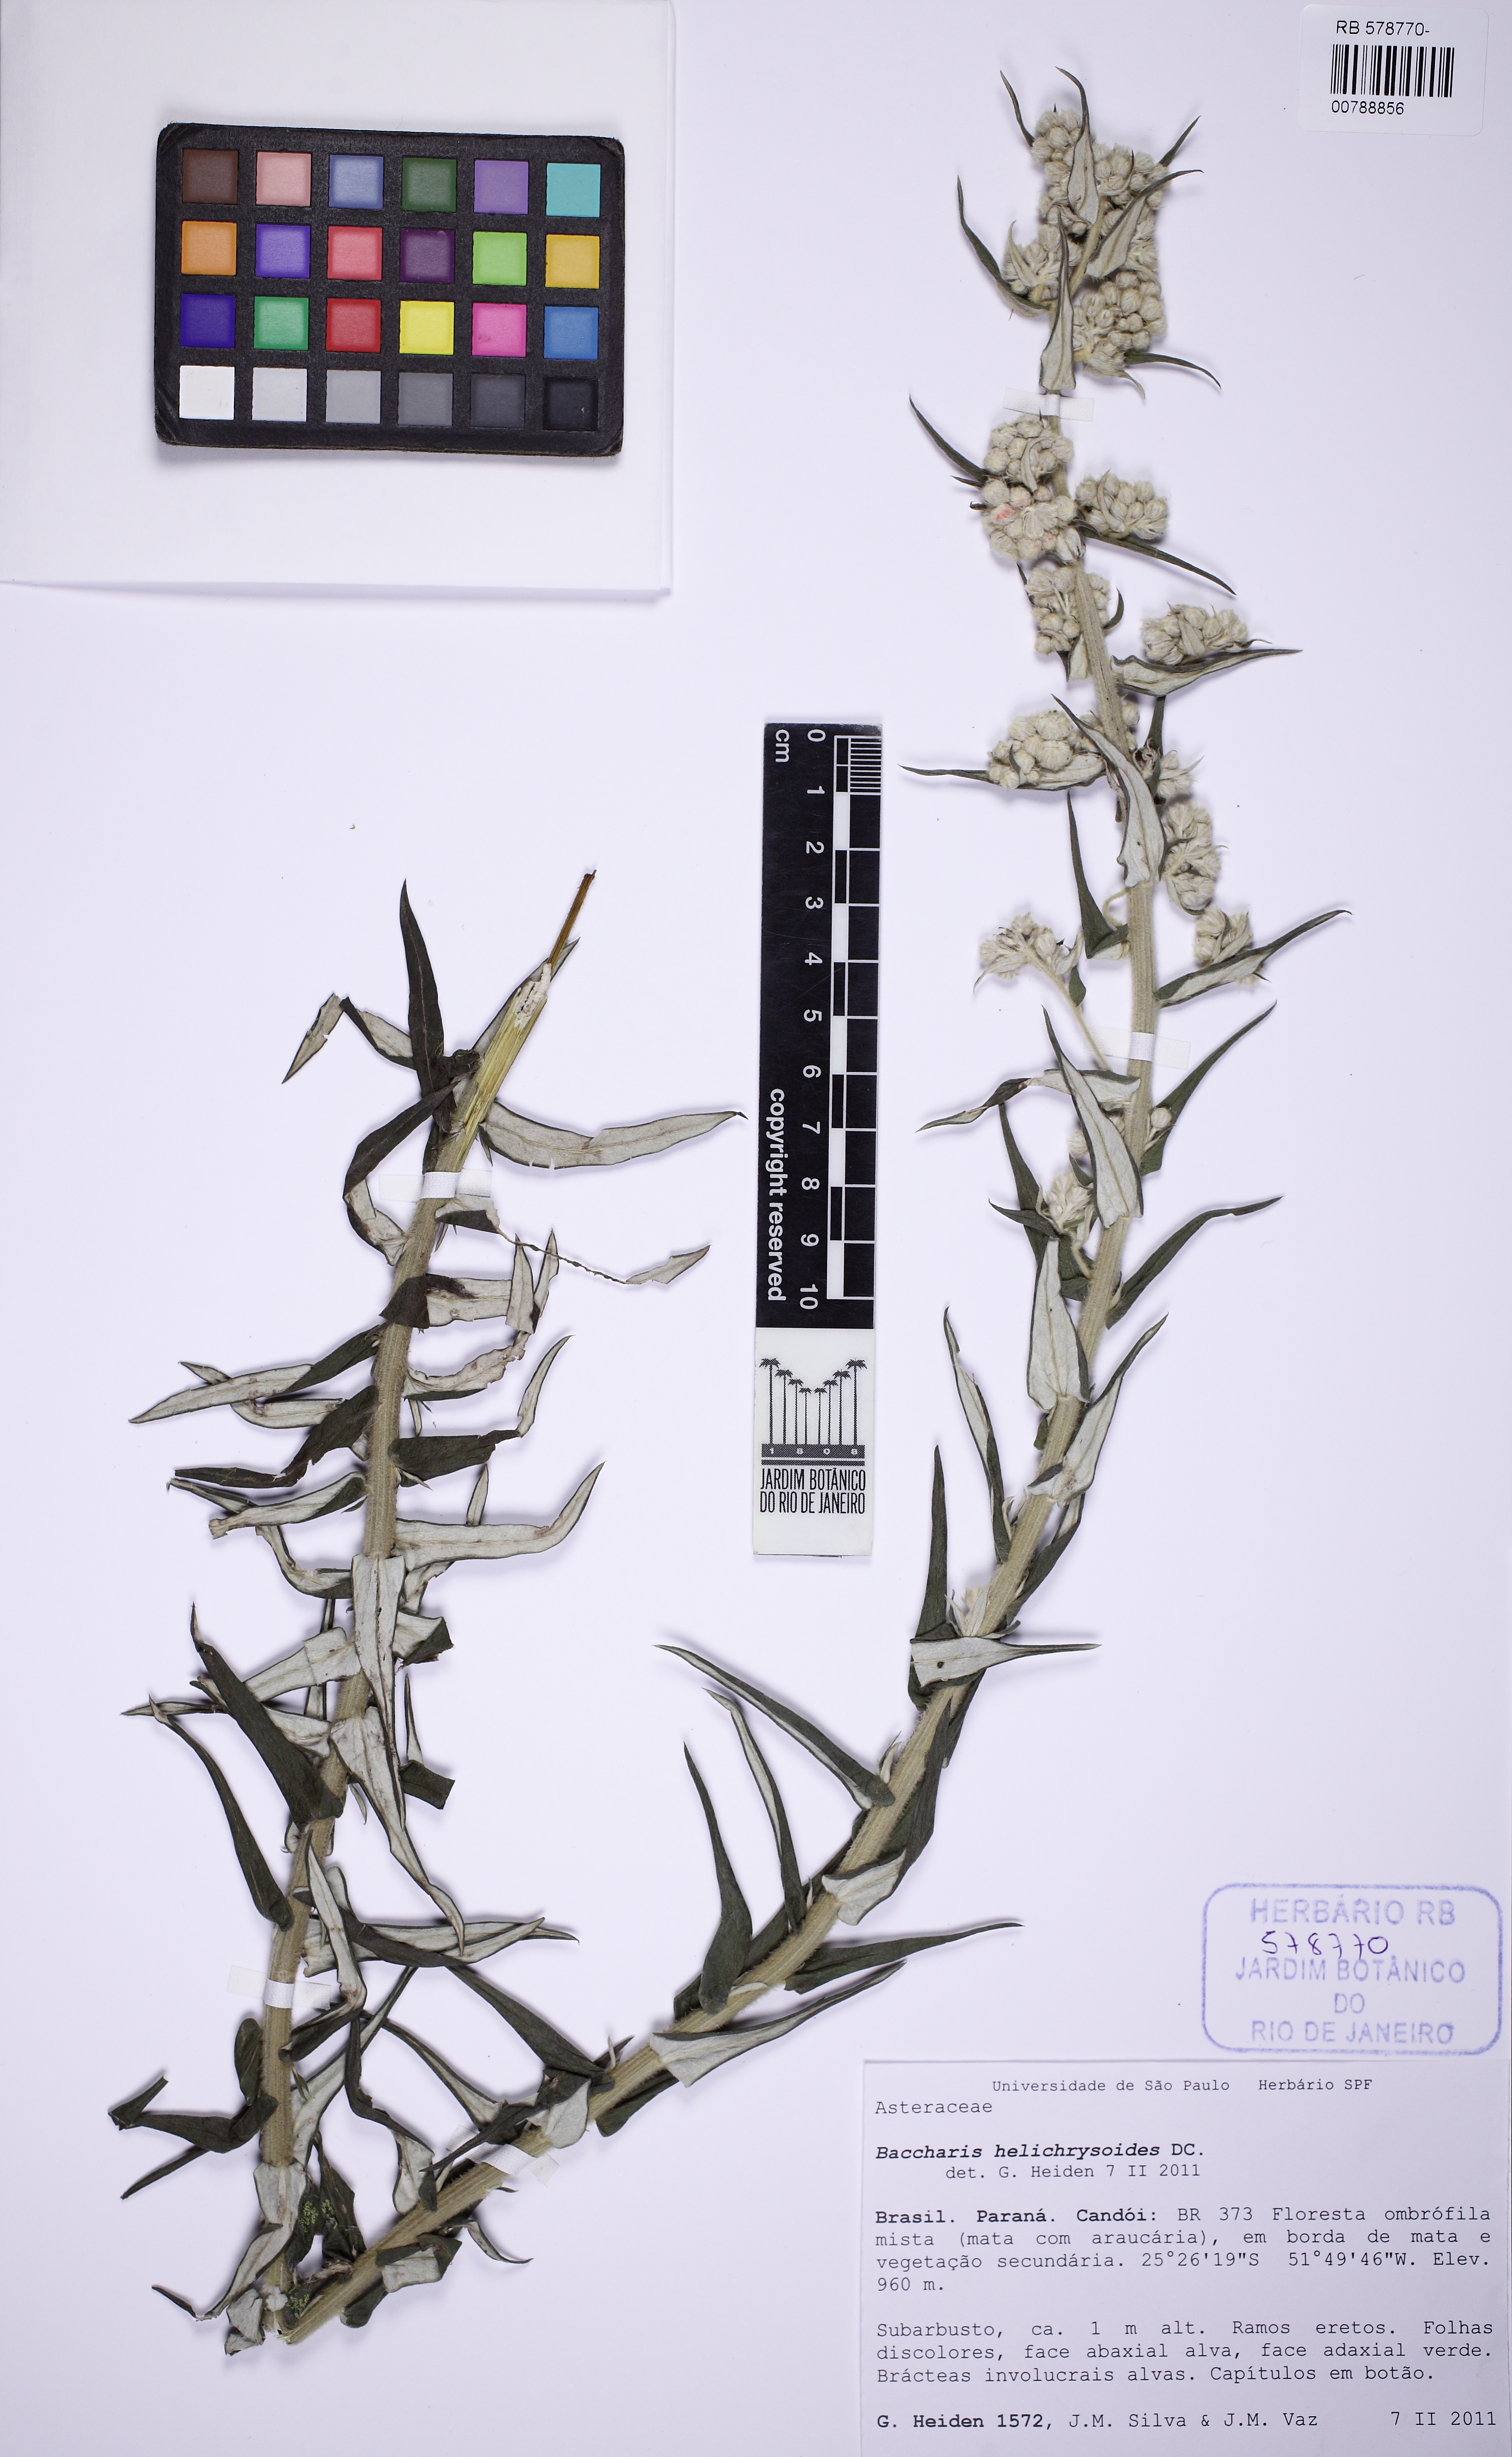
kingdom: Plantae
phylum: Tracheophyta
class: Magnoliopsida
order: Asterales
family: Asteraceae
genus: Baccharis
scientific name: Baccharis helichrysoides
